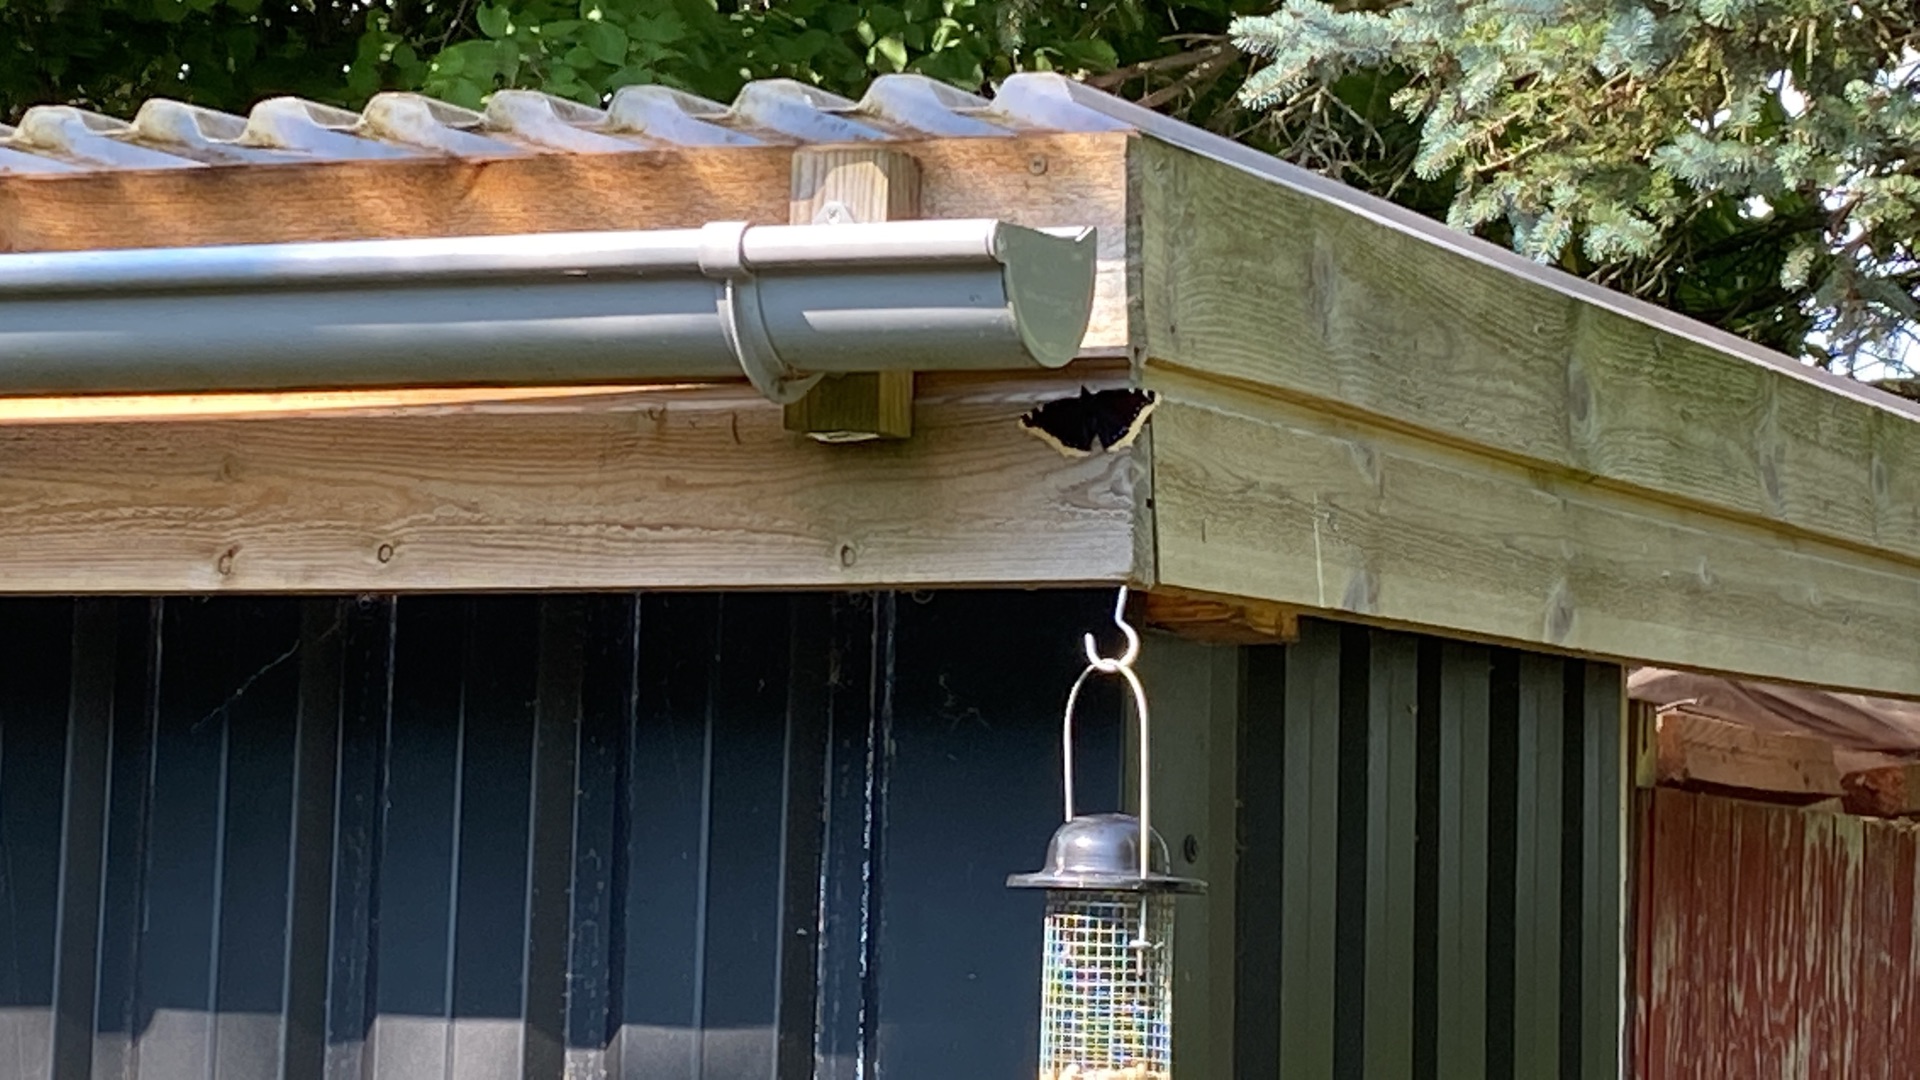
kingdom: Animalia
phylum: Arthropoda
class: Insecta
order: Lepidoptera
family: Nymphalidae
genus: Nymphalis
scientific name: Nymphalis antiopa
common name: Sørgekåbe
